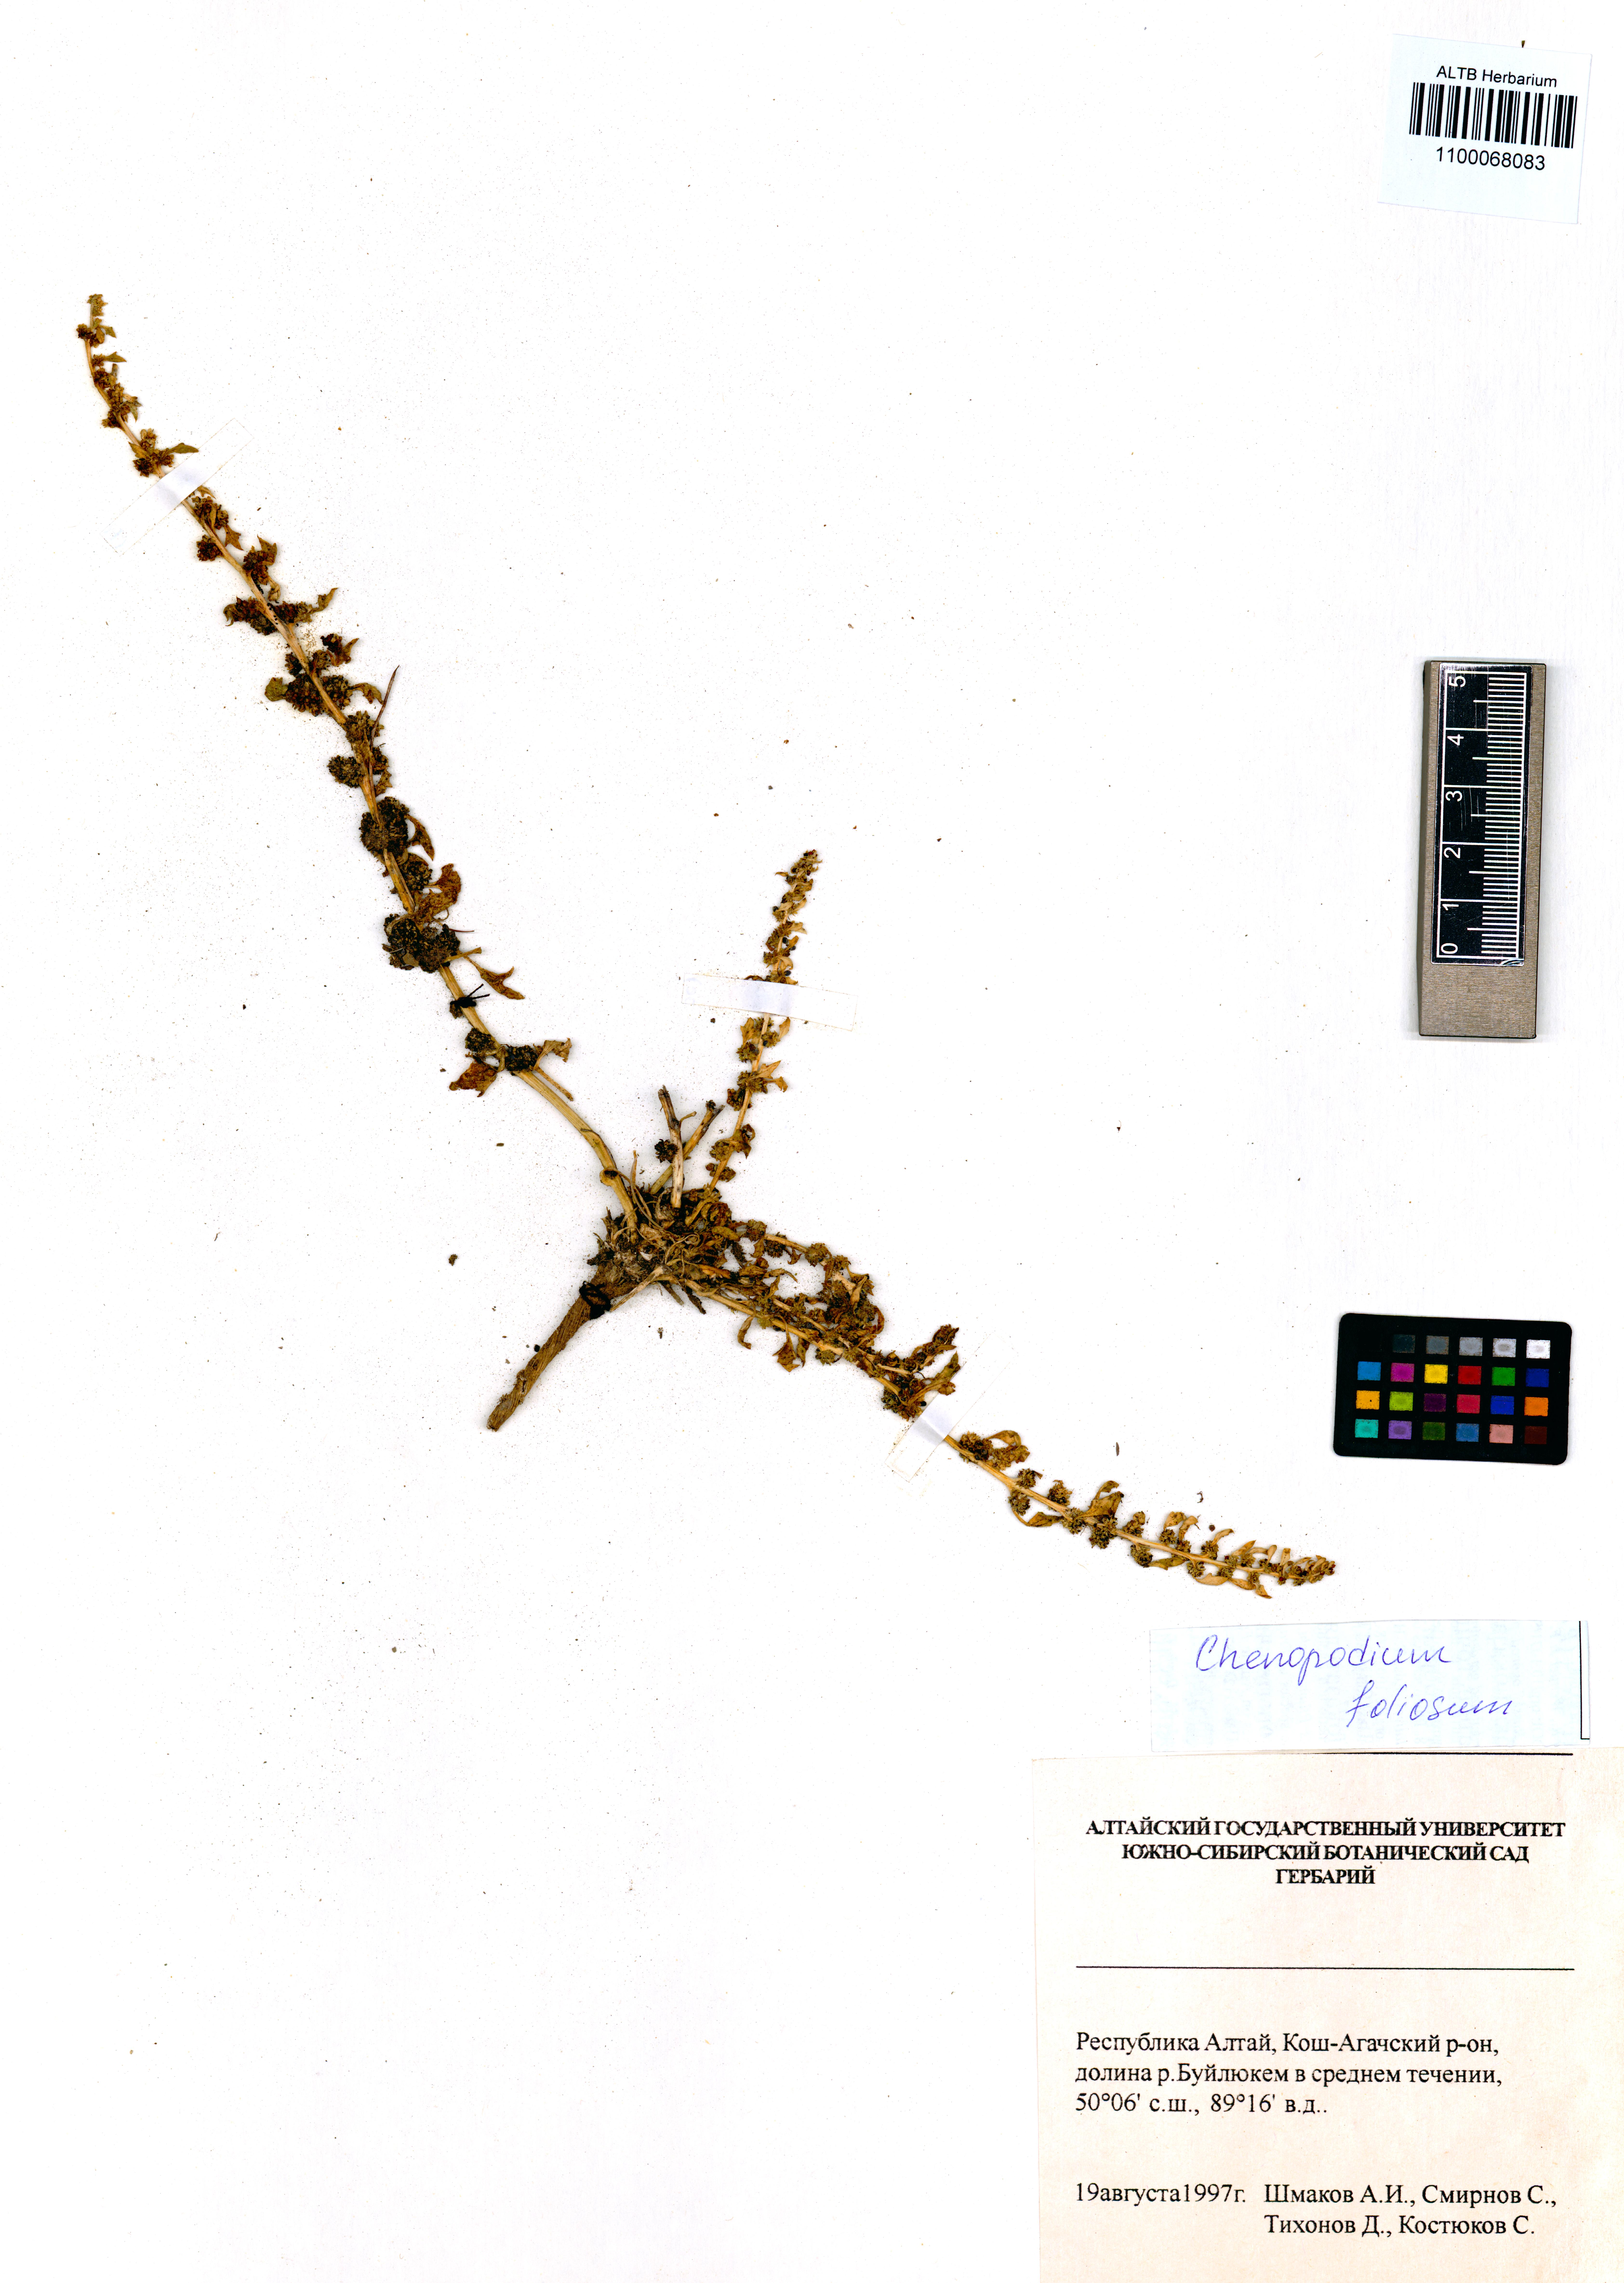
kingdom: Plantae
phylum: Tracheophyta
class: Magnoliopsida
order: Caryophyllales
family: Amaranthaceae
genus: Blitum
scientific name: Blitum virgatum
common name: Strawberry goosefoot
